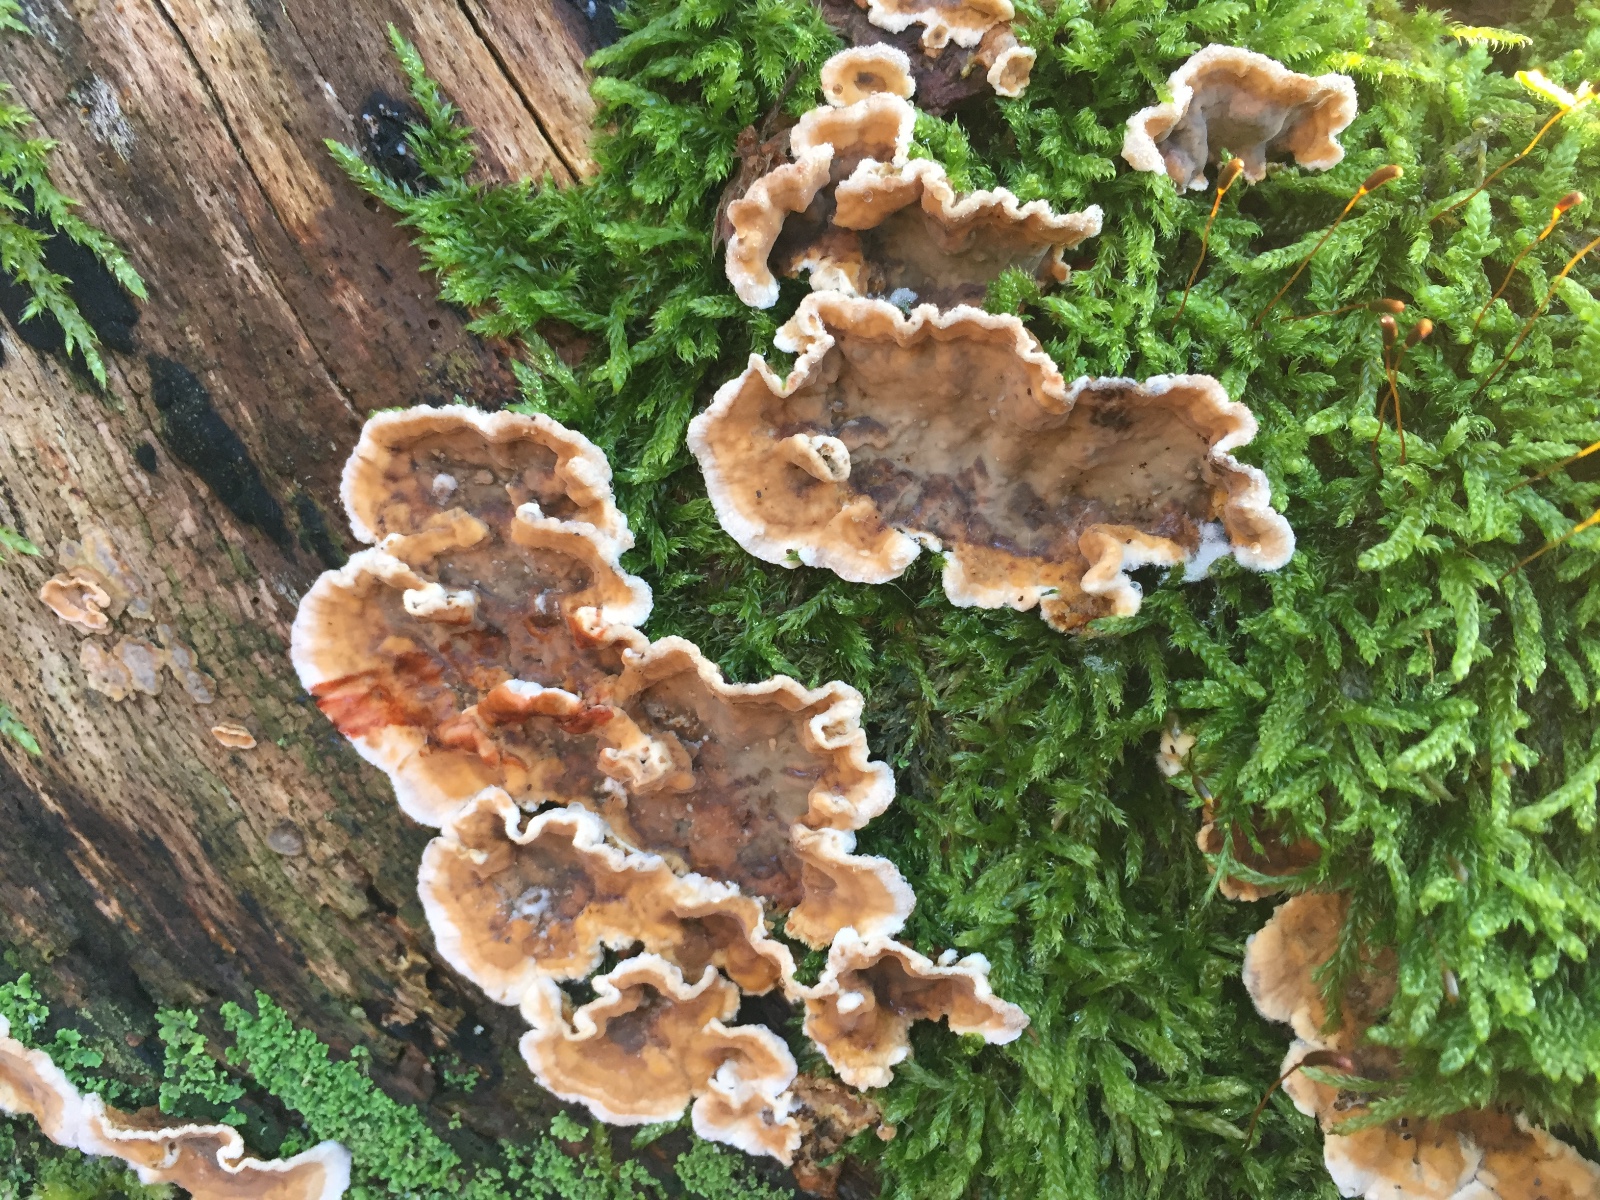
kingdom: Fungi
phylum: Basidiomycota
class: Agaricomycetes
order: Russulales
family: Stereaceae
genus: Stereum
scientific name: Stereum rugosum
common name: rynket lædersvamp
